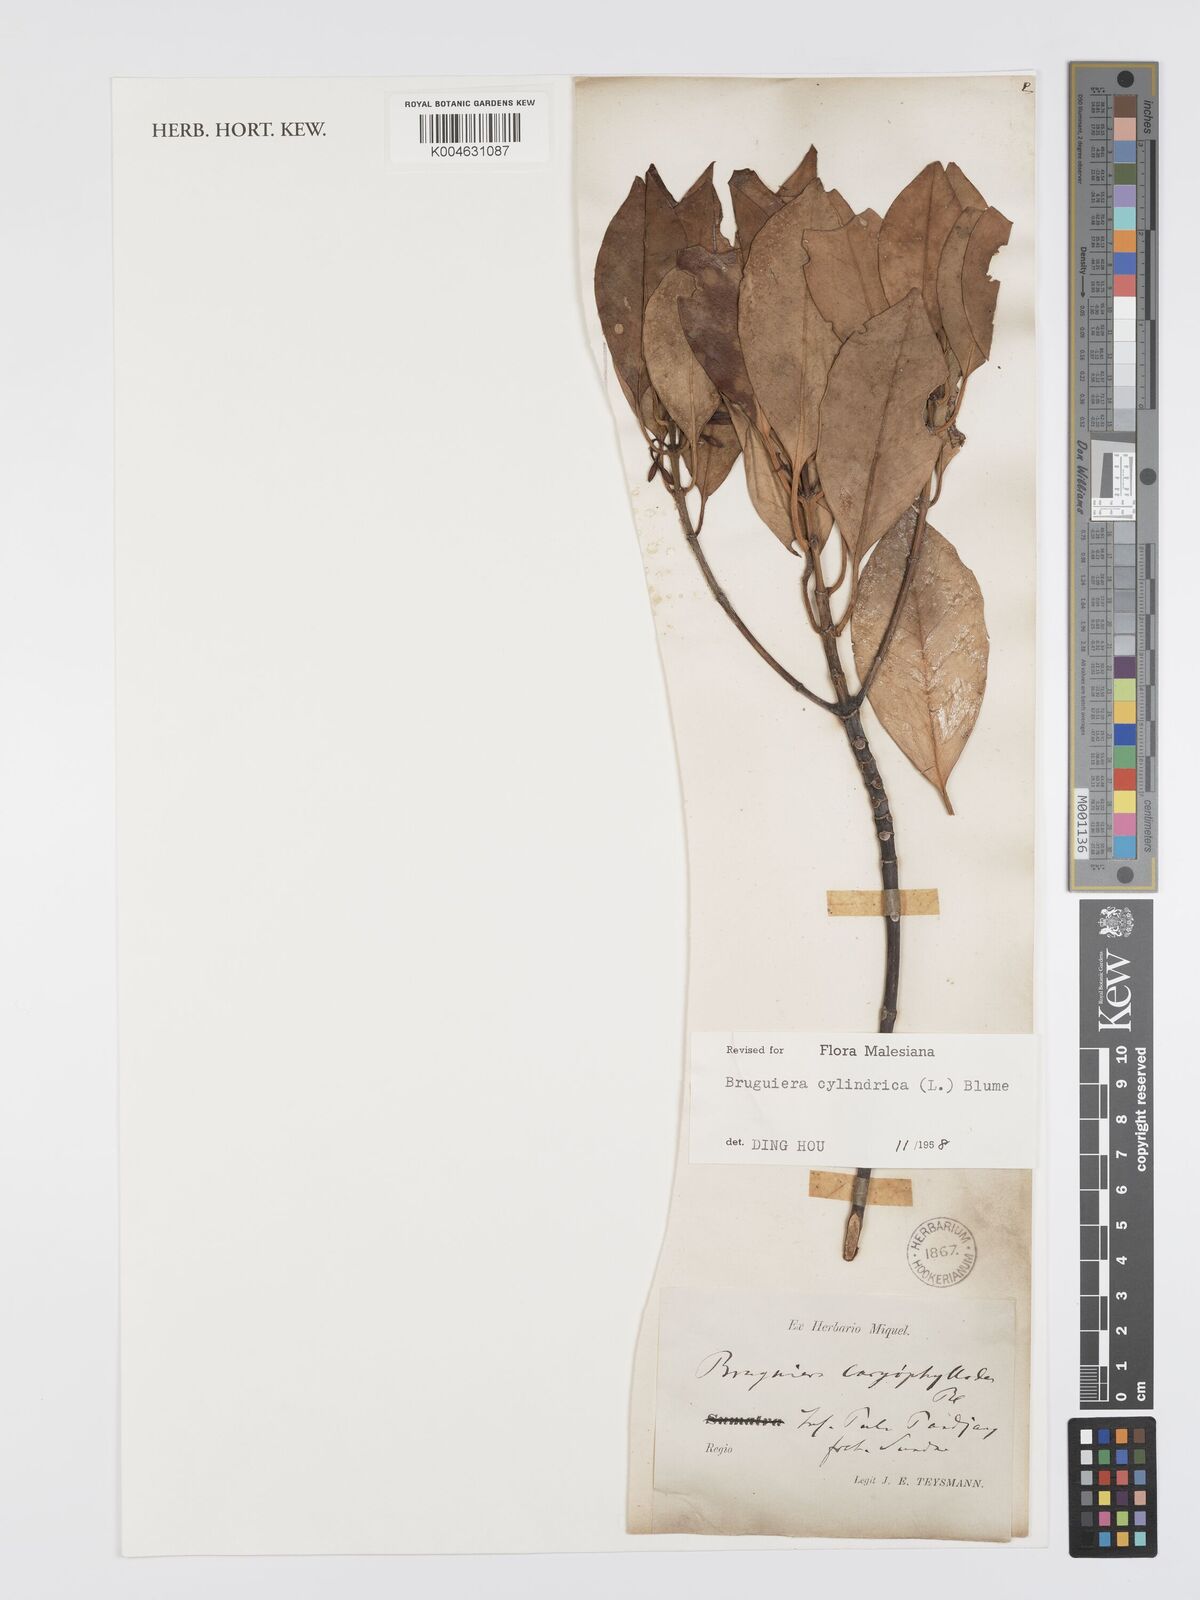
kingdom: Plantae
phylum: Tracheophyta
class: Magnoliopsida
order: Malpighiales
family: Rhizophoraceae
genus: Bruguiera
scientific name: Bruguiera cylindrica
